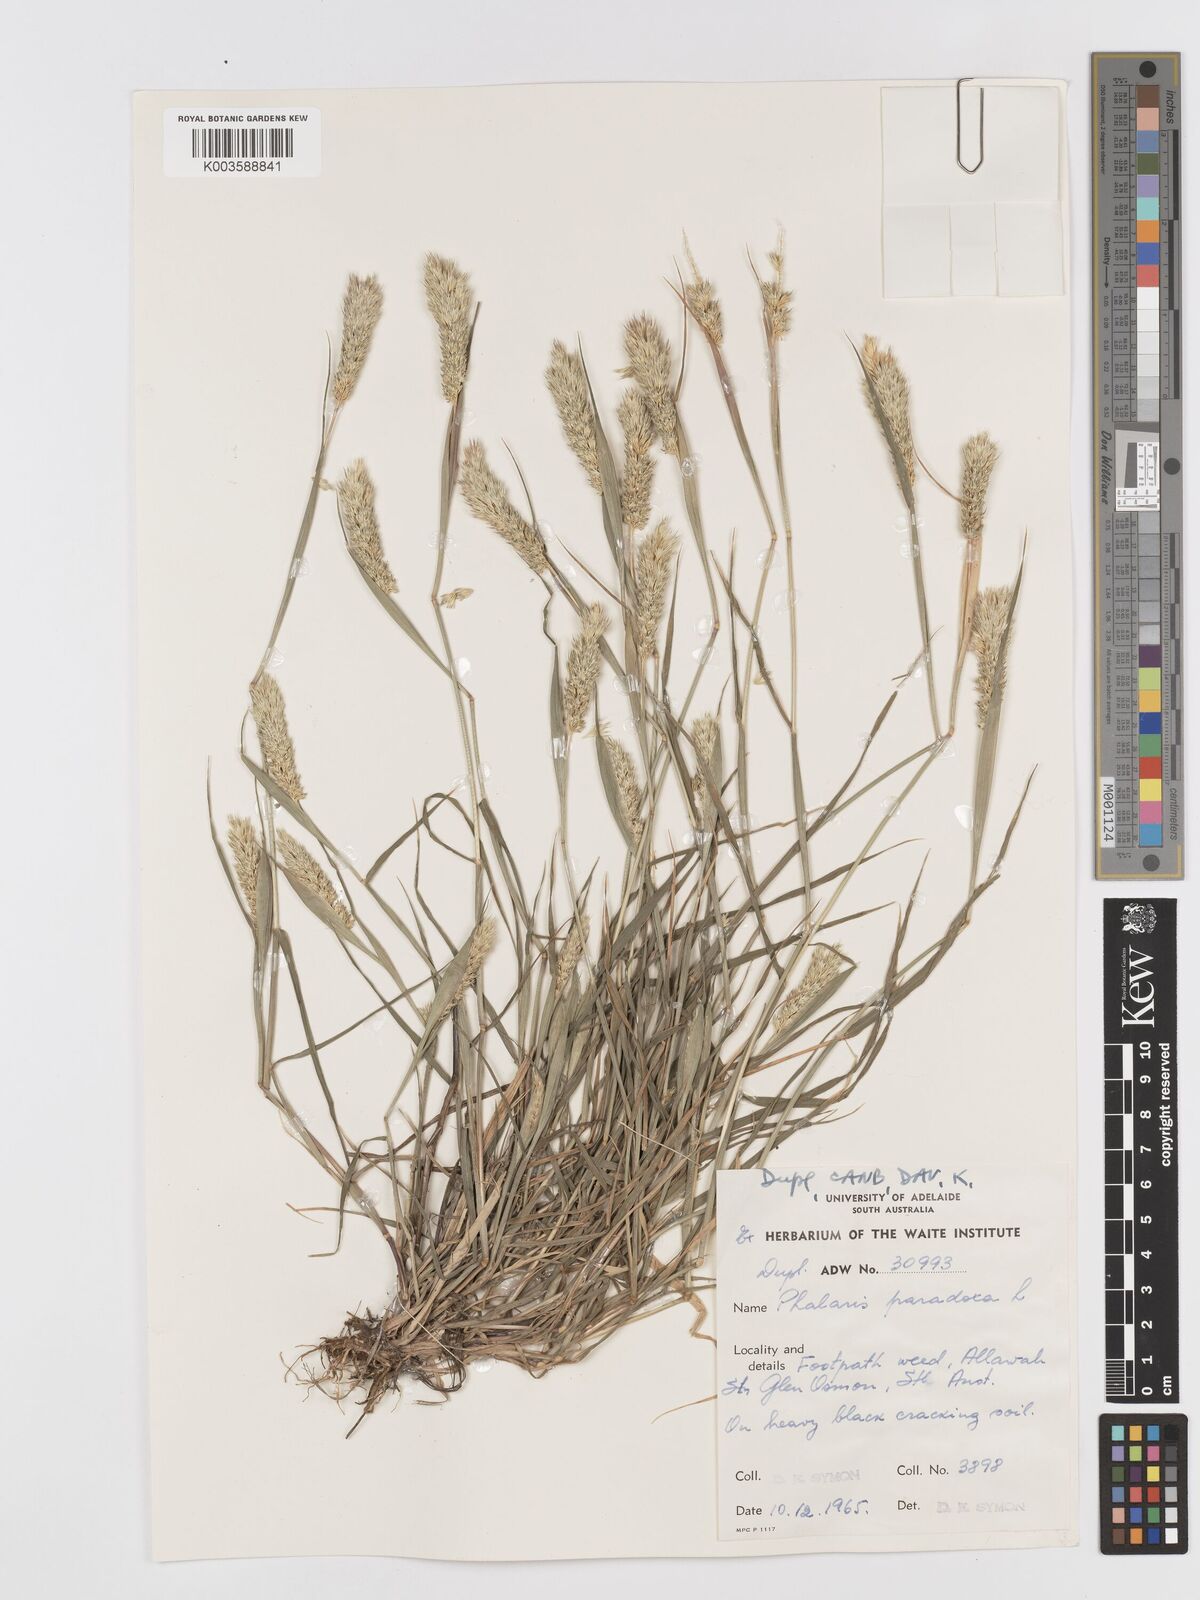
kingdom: Plantae
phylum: Tracheophyta
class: Liliopsida
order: Poales
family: Poaceae
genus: Phalaris
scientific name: Phalaris
